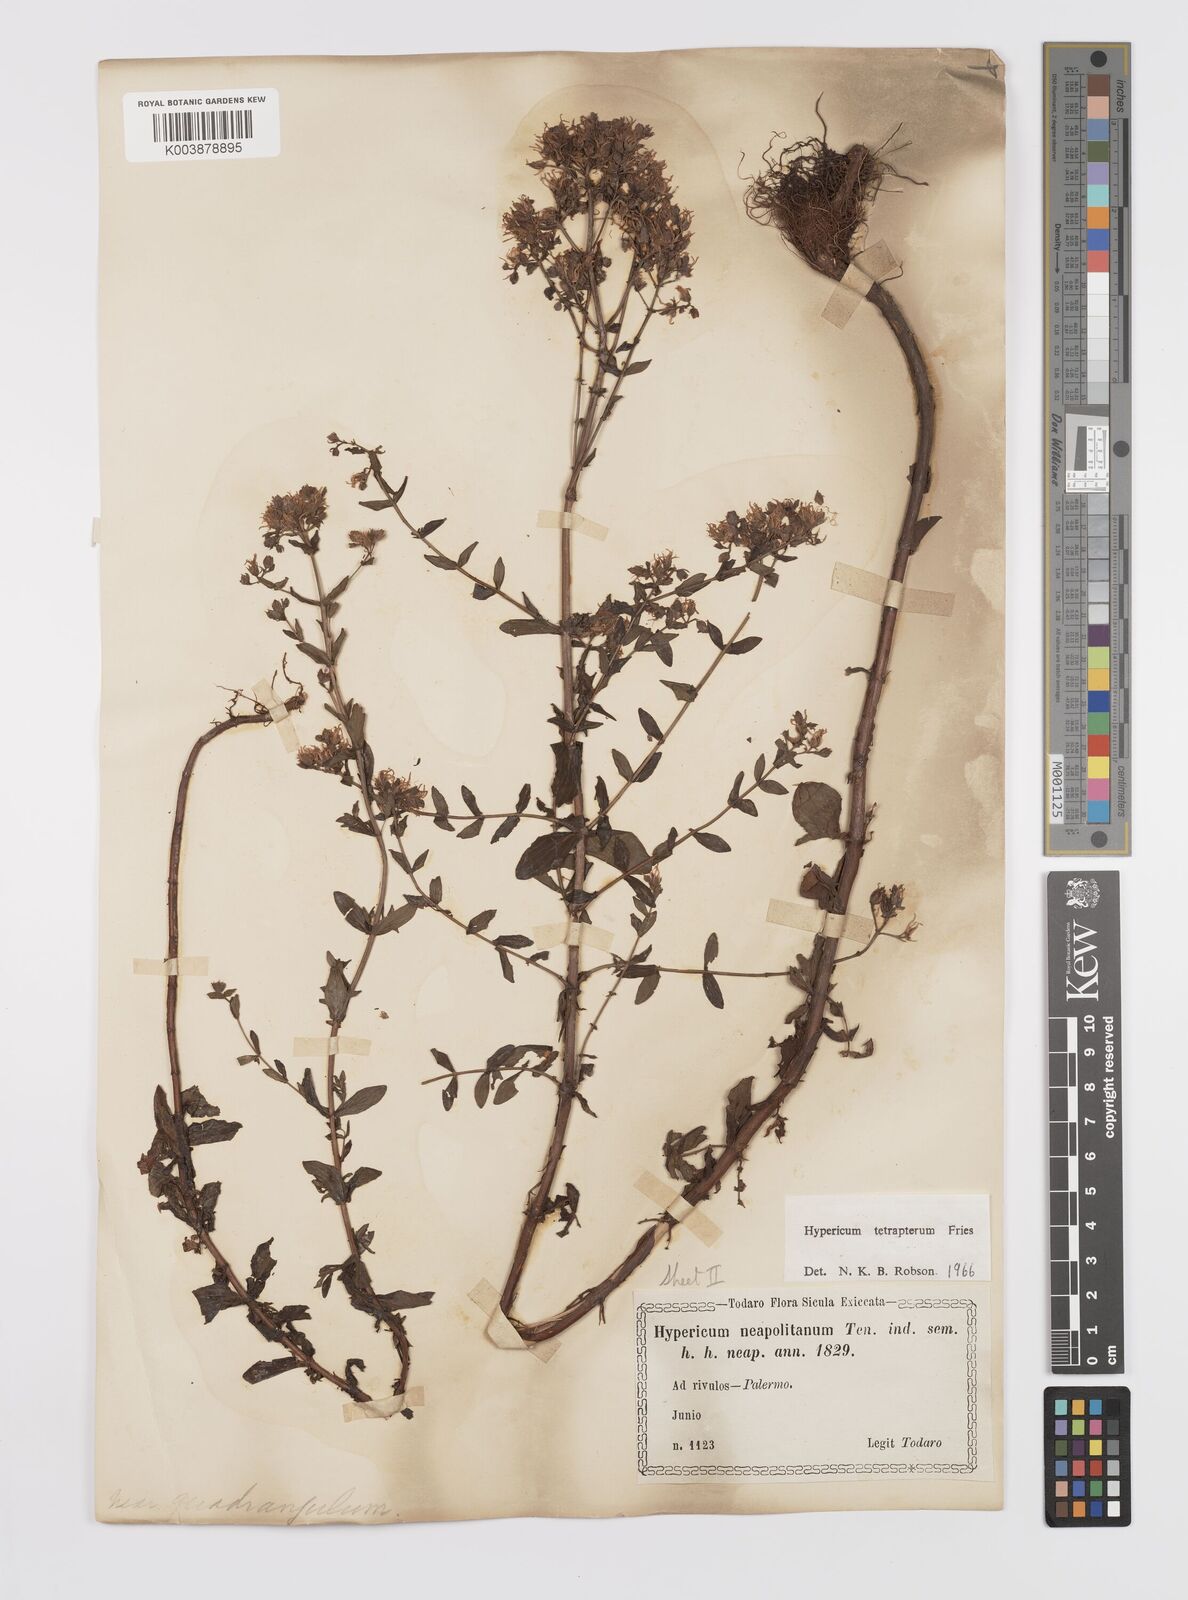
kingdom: Plantae
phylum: Tracheophyta
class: Magnoliopsida
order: Malpighiales
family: Hypericaceae
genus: Hypericum
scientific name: Hypericum tetrapterum
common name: Square-stalked st. john's-wort
